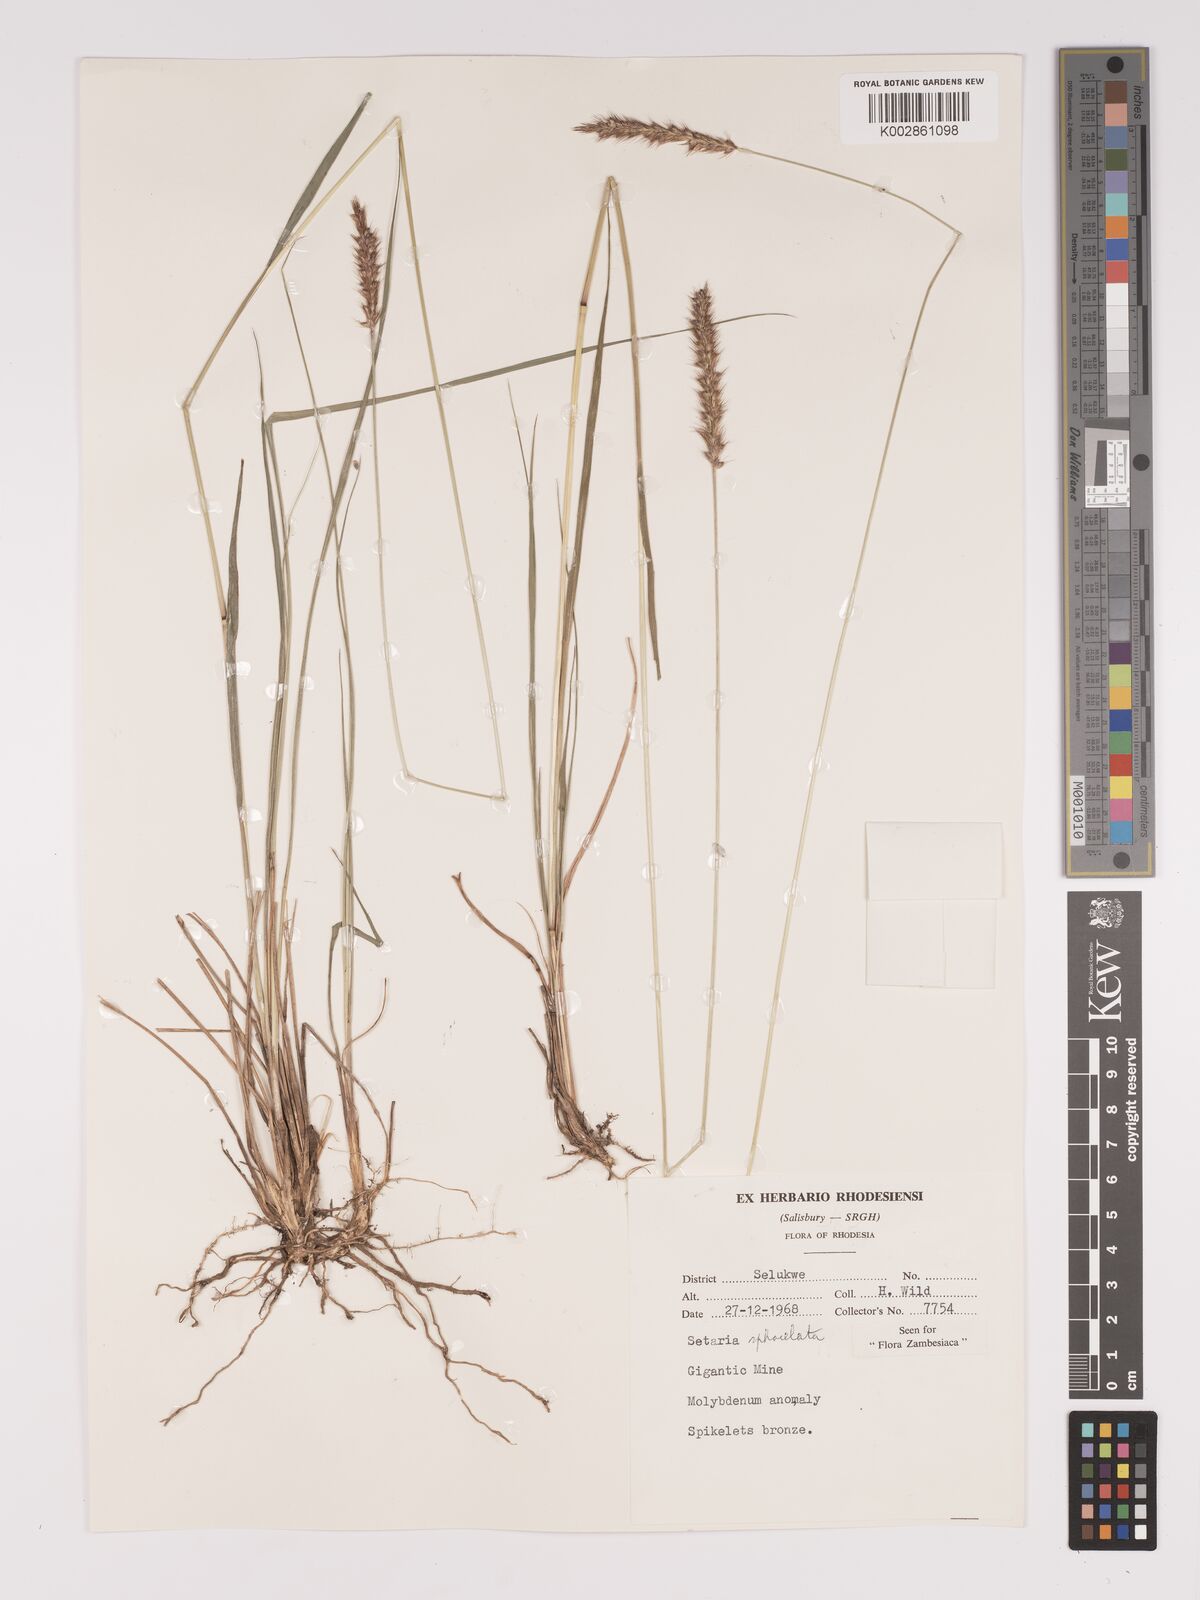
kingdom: Plantae
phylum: Tracheophyta
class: Liliopsida
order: Poales
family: Poaceae
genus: Setaria
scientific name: Setaria sphacelata
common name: African bristlegrass
